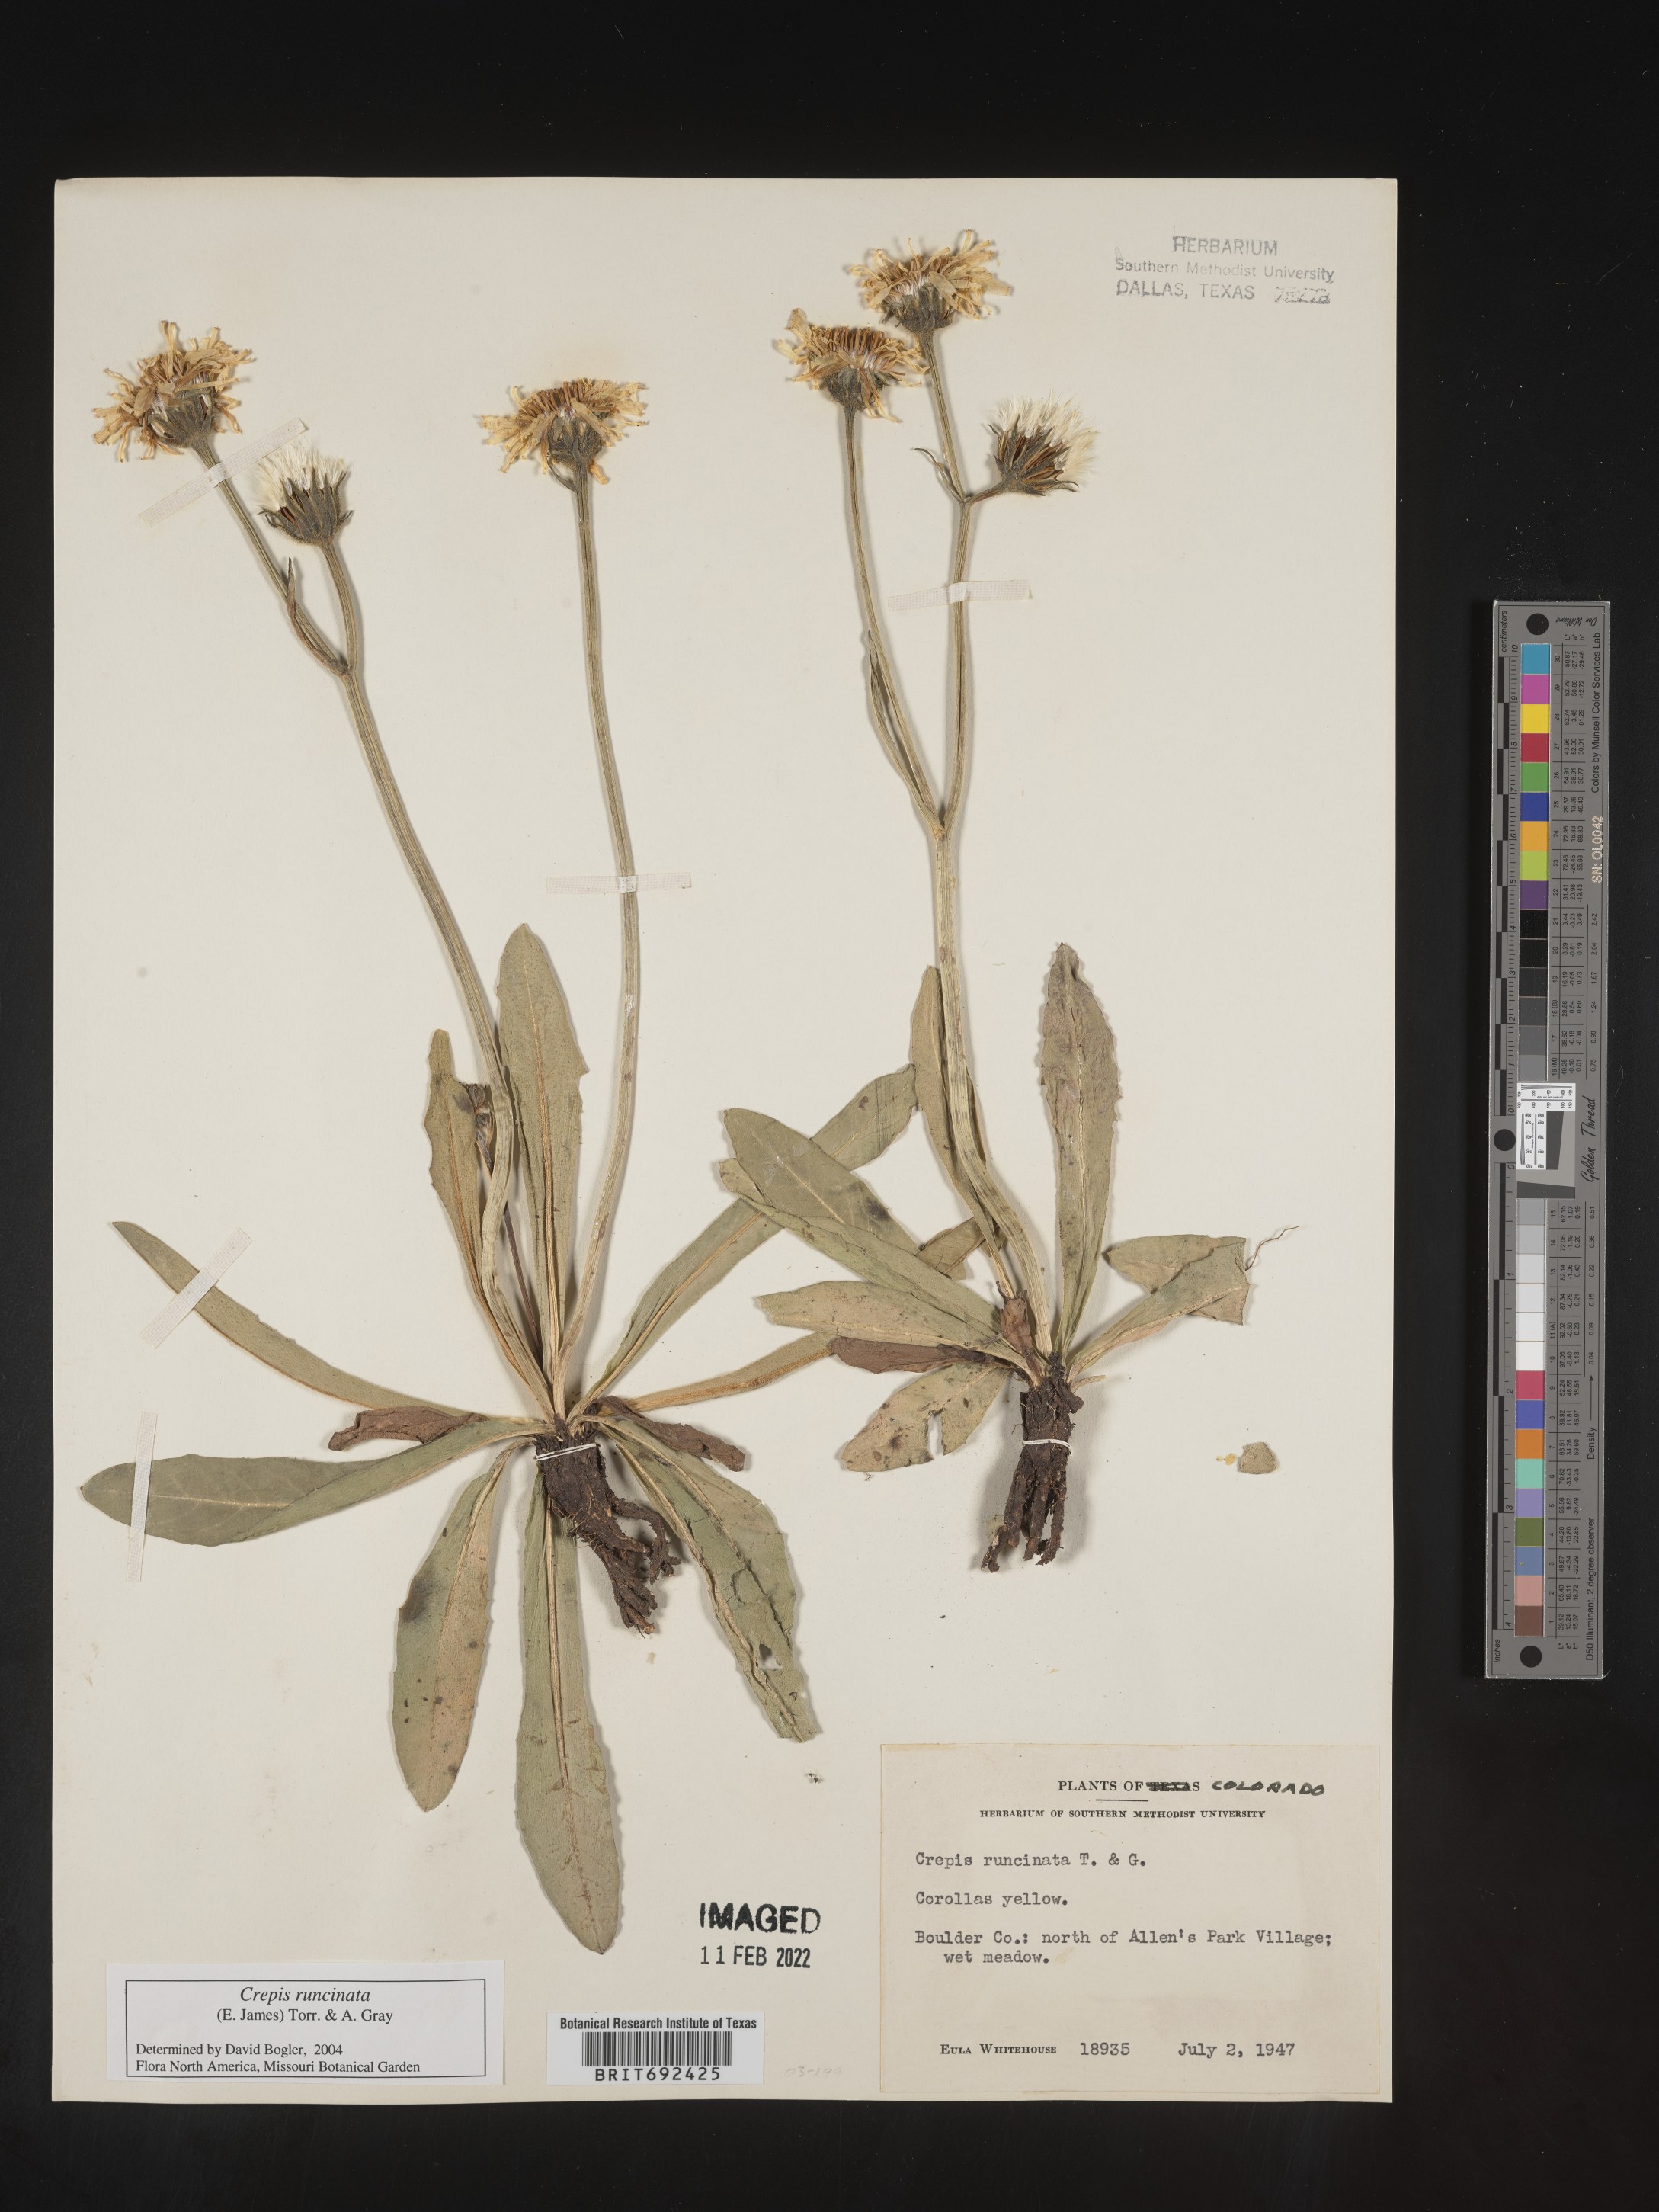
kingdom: Plantae
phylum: Tracheophyta
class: Magnoliopsida
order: Asterales
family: Asteraceae
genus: Crepis
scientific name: Crepis
